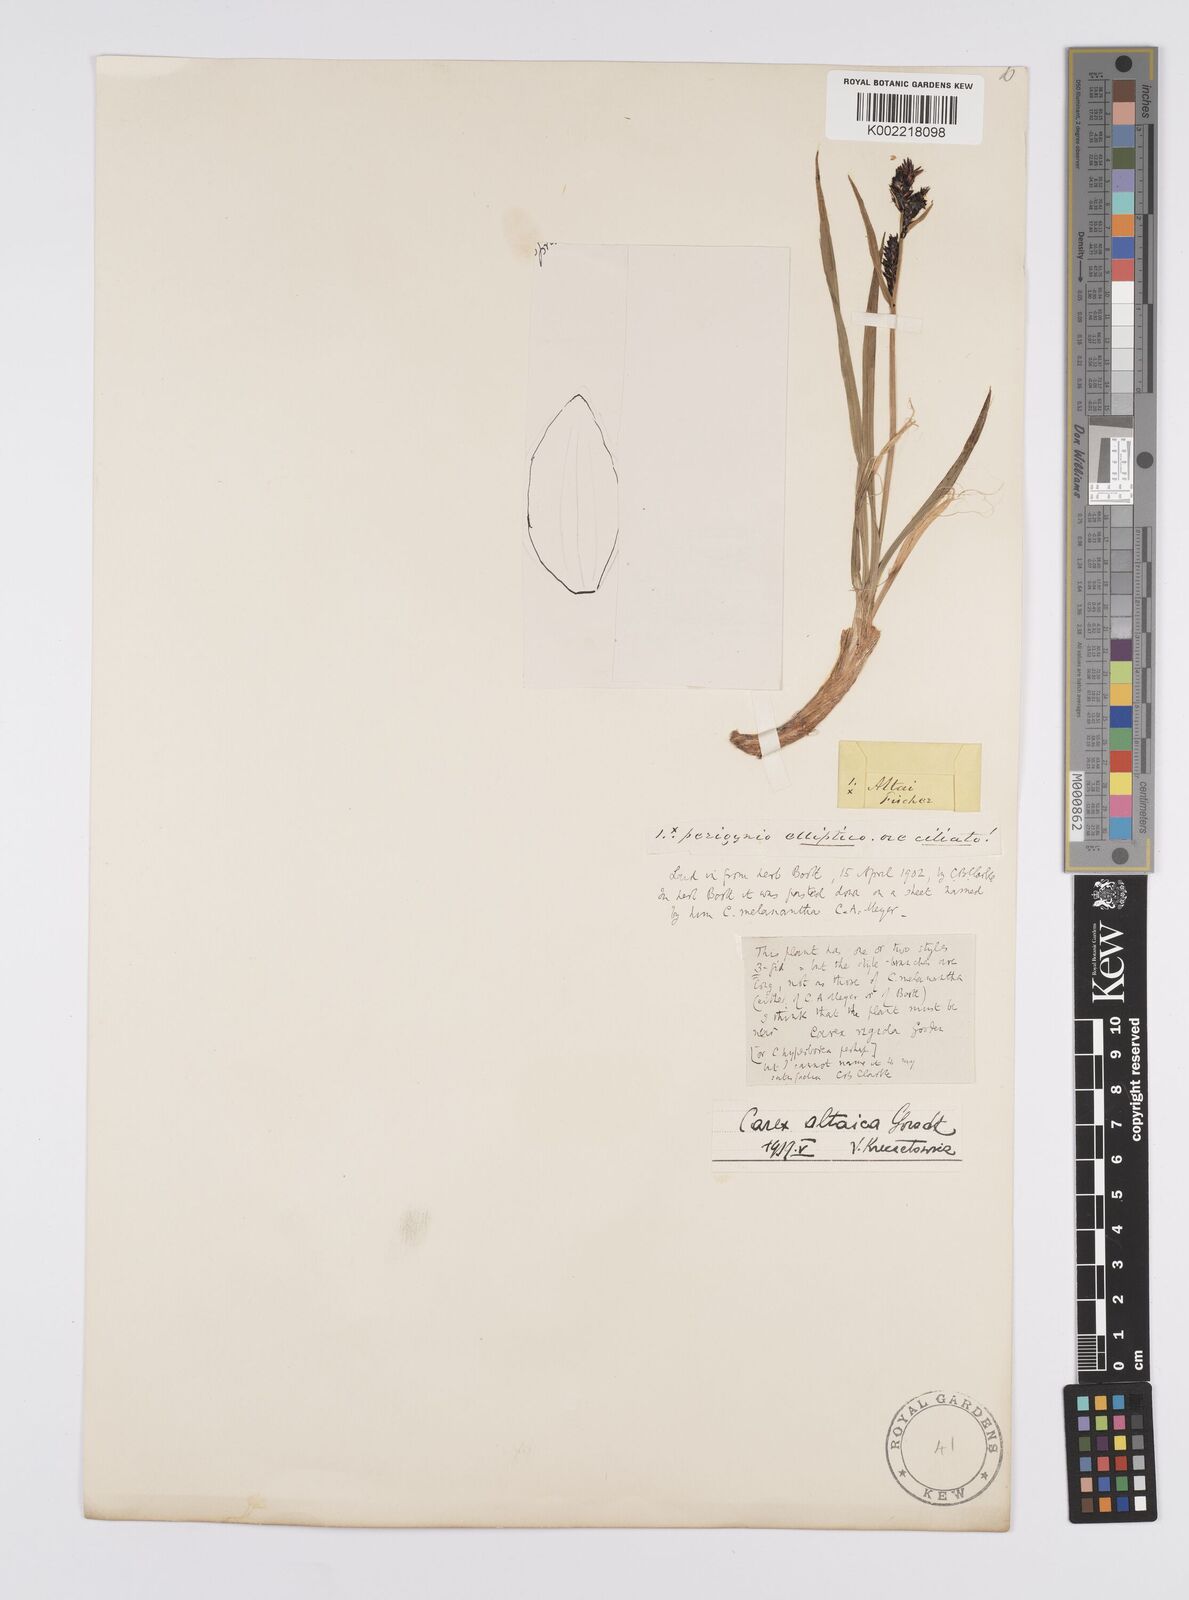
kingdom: Plantae
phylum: Tracheophyta
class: Liliopsida
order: Poales
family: Cyperaceae
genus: Carex
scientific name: Carex altaica
